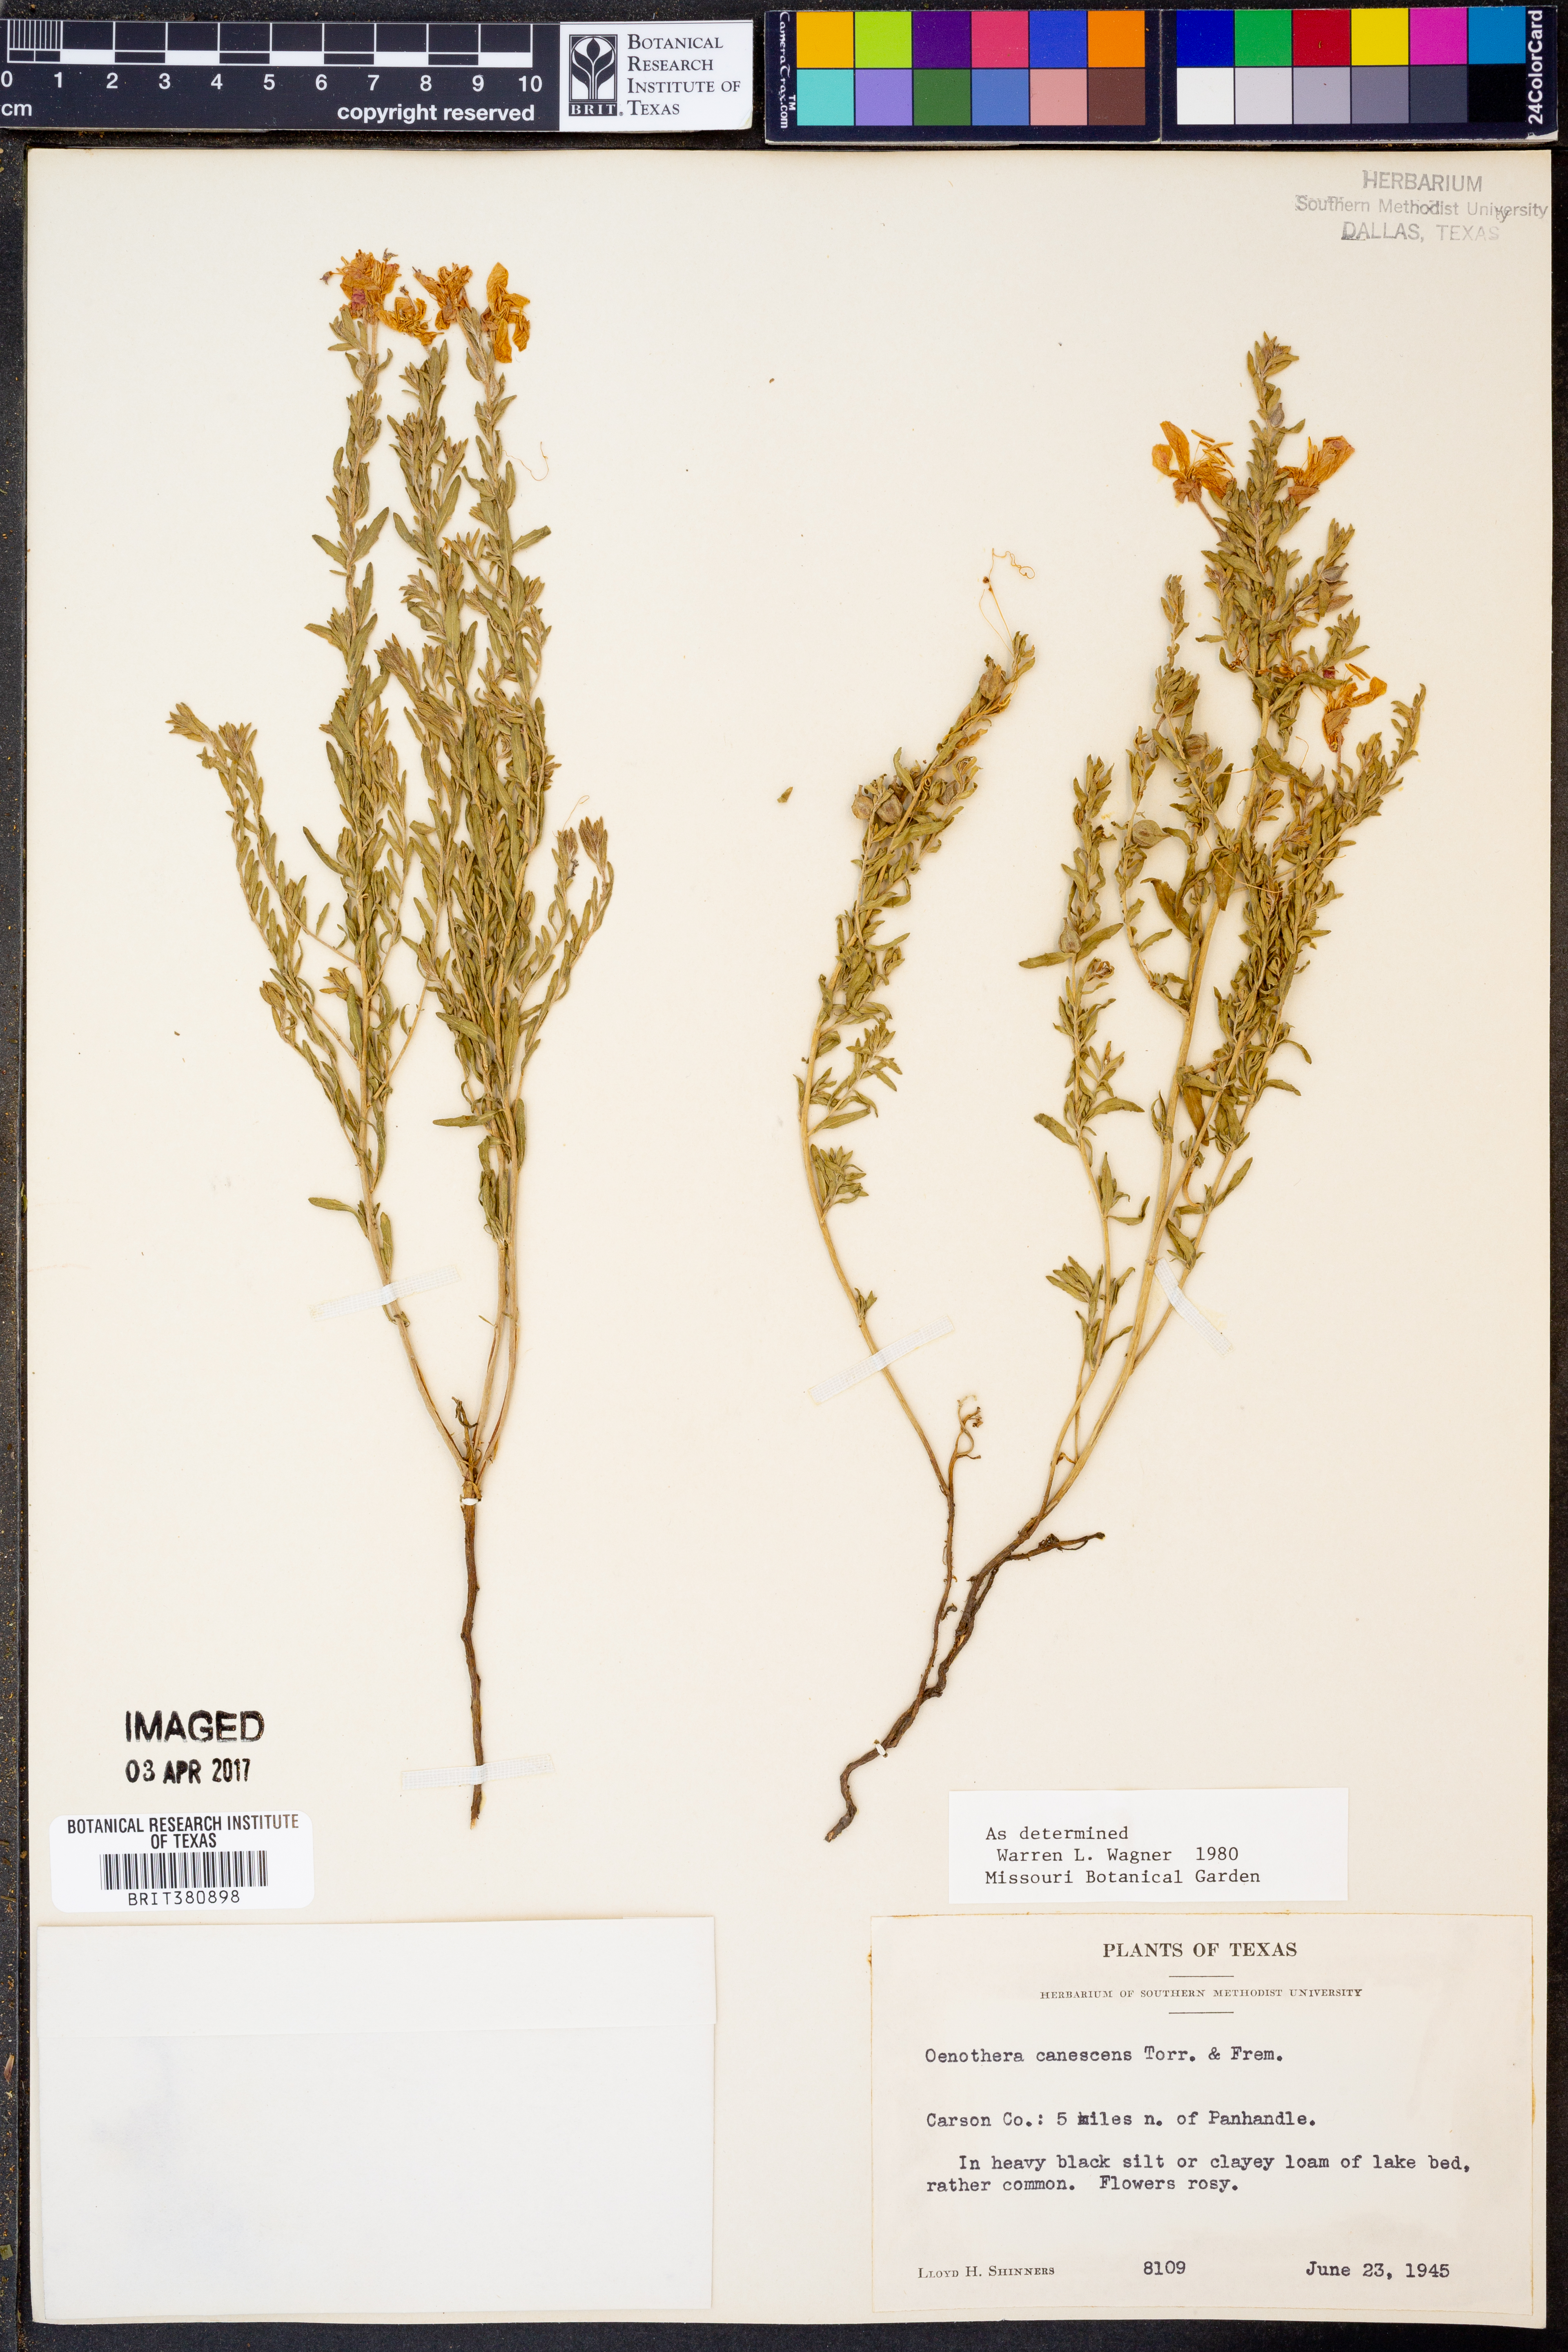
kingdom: Plantae
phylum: Tracheophyta
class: Magnoliopsida
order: Myrtales
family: Onagraceae
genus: Oenothera
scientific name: Oenothera canescens
